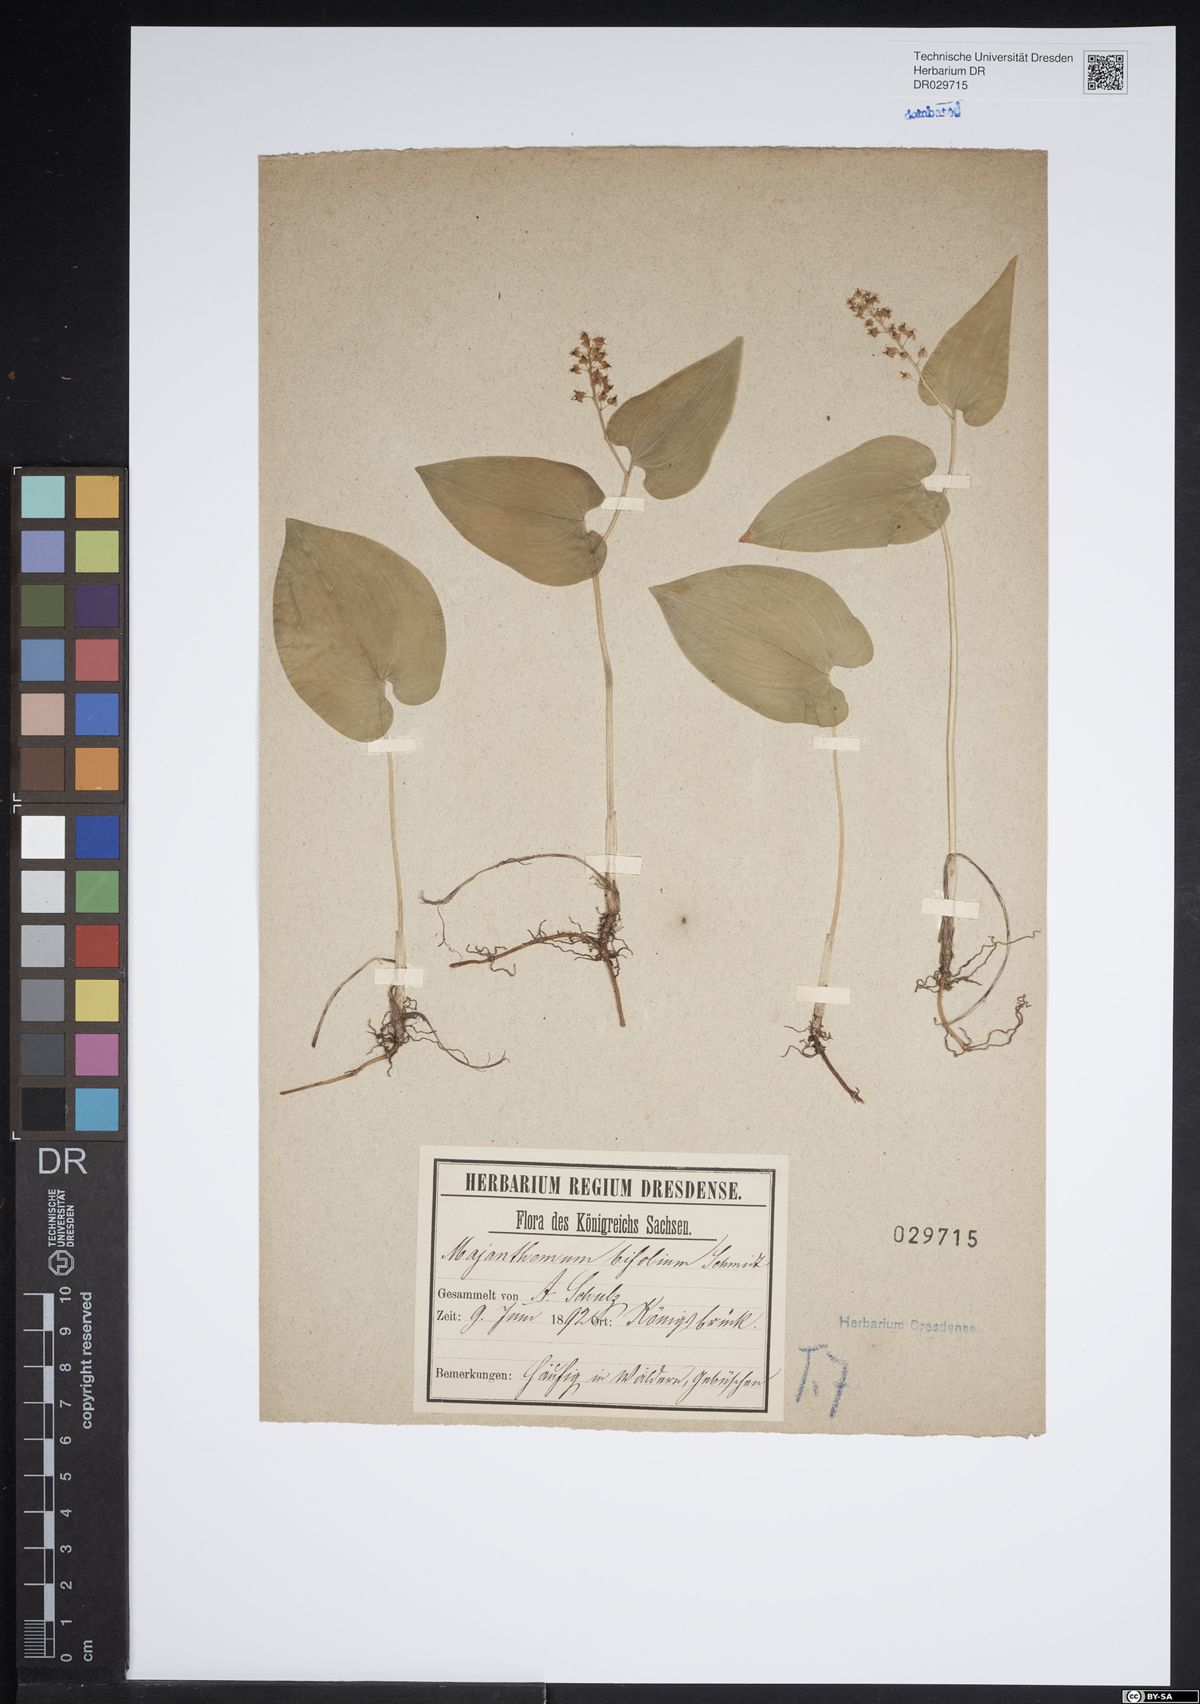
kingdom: Plantae
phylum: Tracheophyta
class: Liliopsida
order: Asparagales
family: Asparagaceae
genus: Maianthemum
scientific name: Maianthemum bifolium
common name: May lily
